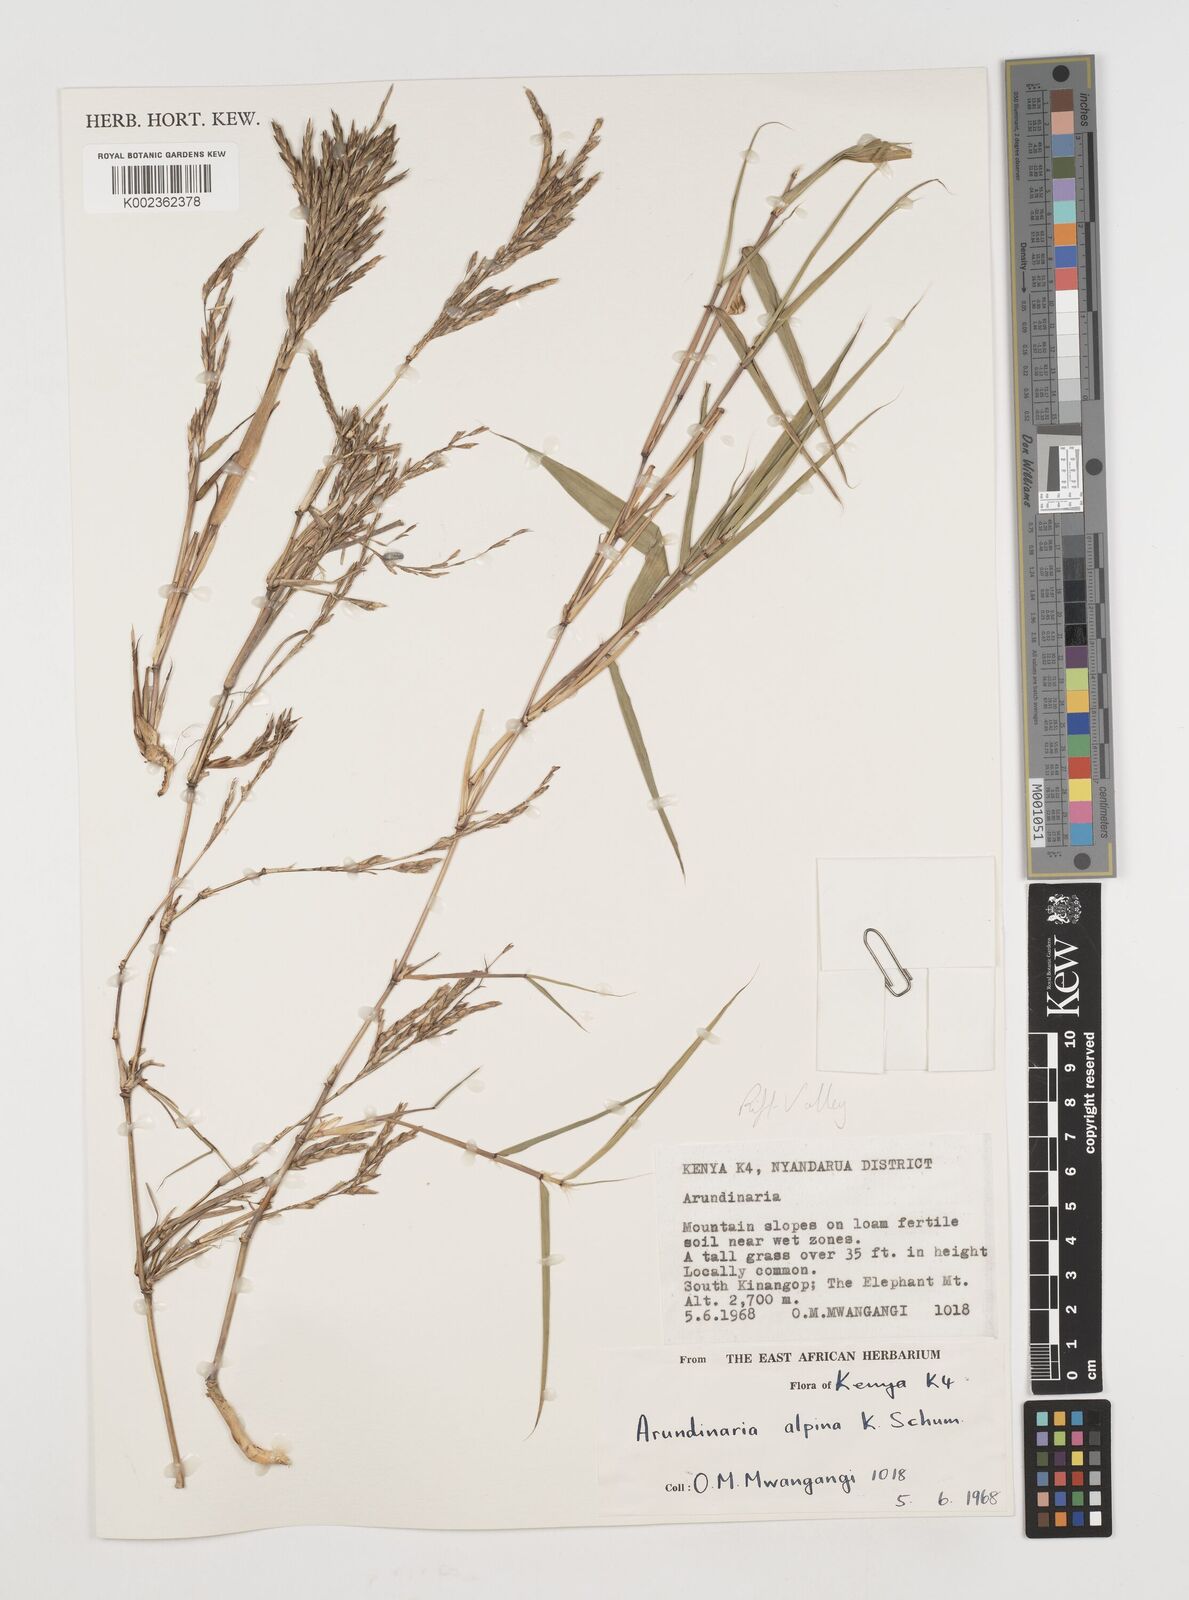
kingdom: Plantae
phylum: Tracheophyta
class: Liliopsida
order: Poales
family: Poaceae
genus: Oldeania
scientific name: Oldeania alpina
